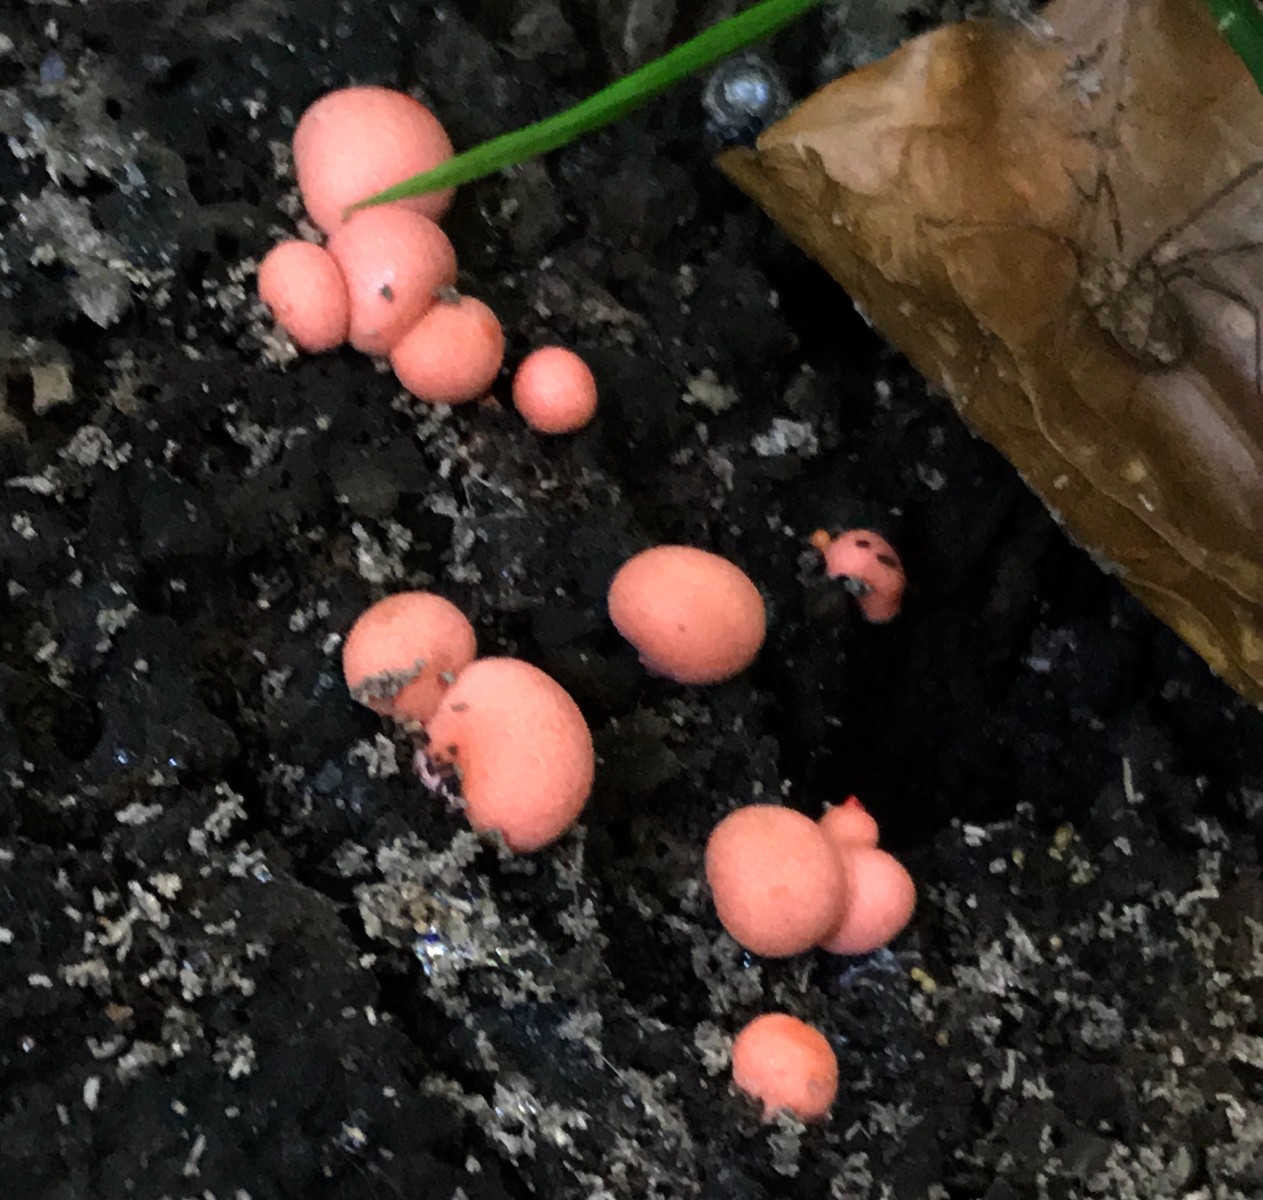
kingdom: Protozoa
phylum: Mycetozoa
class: Myxomycetes
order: Cribrariales
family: Tubiferaceae
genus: Lycogala
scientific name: Lycogala epidendrum
